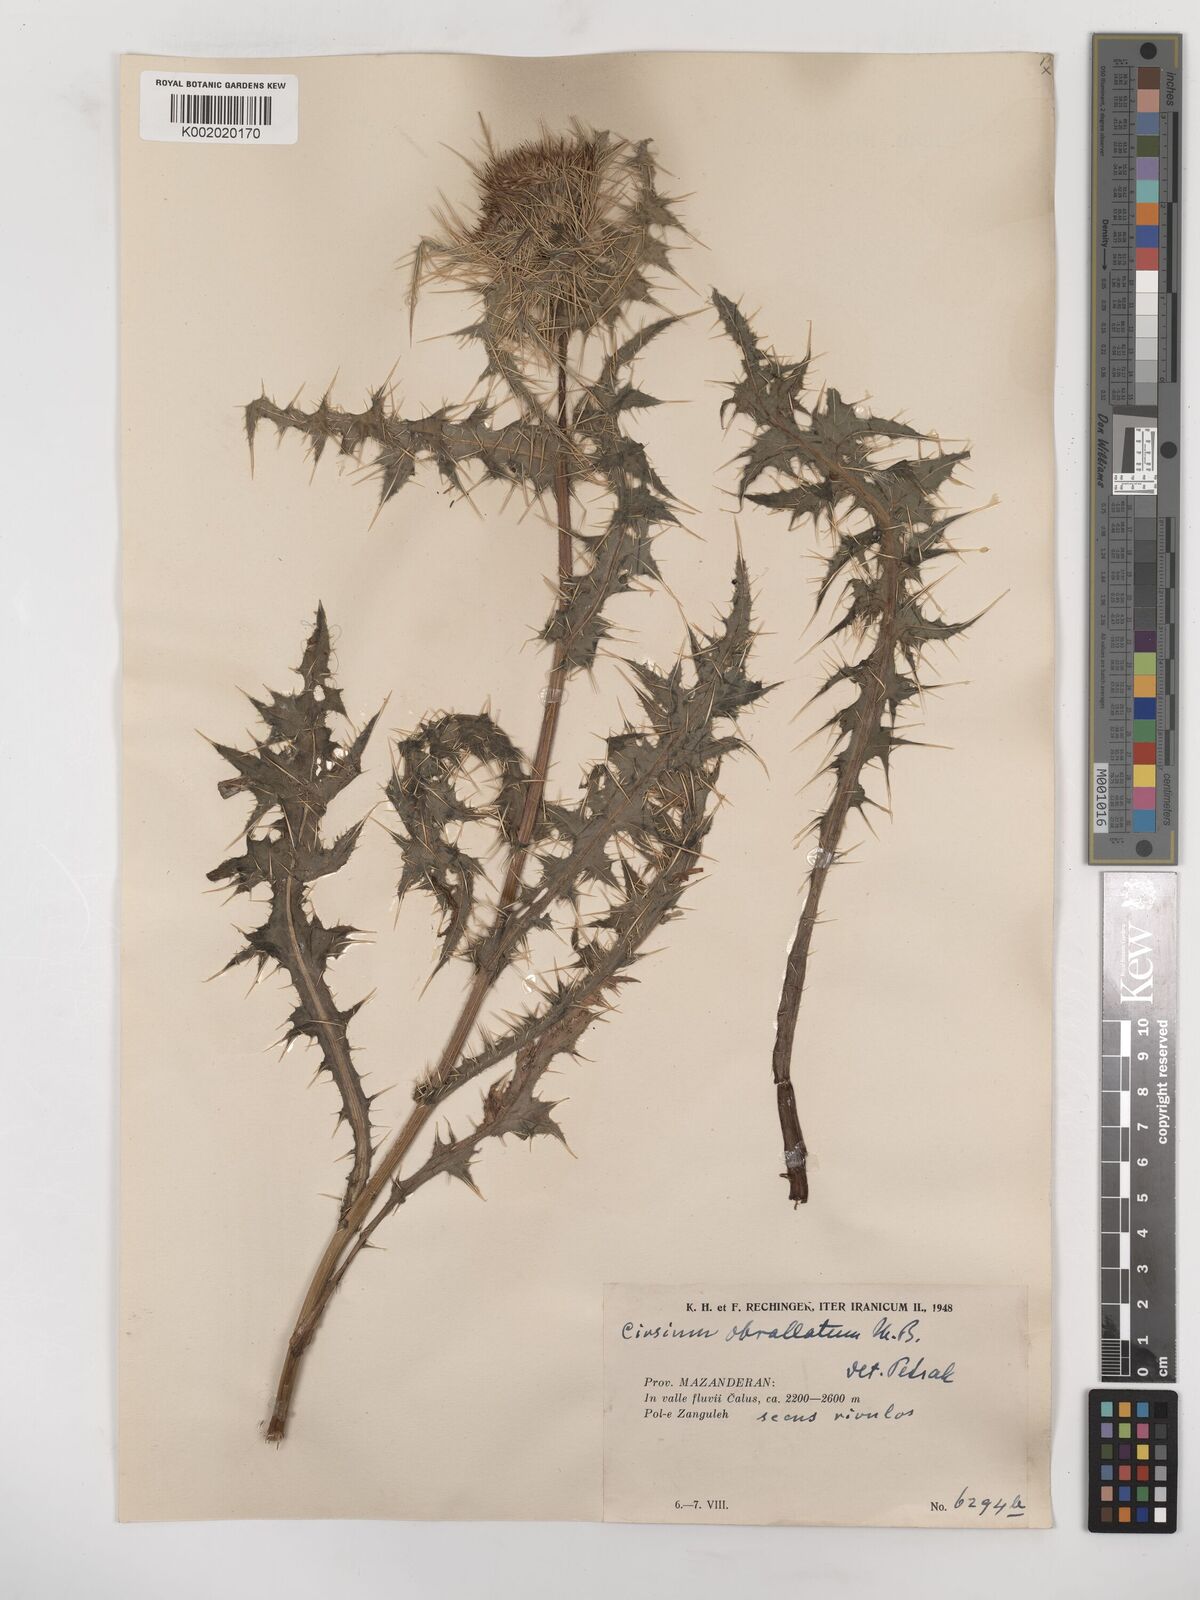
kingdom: Plantae
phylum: Tracheophyta
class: Magnoliopsida
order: Asterales
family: Asteraceae
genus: Cirsium
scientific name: Cirsium obvallatum
